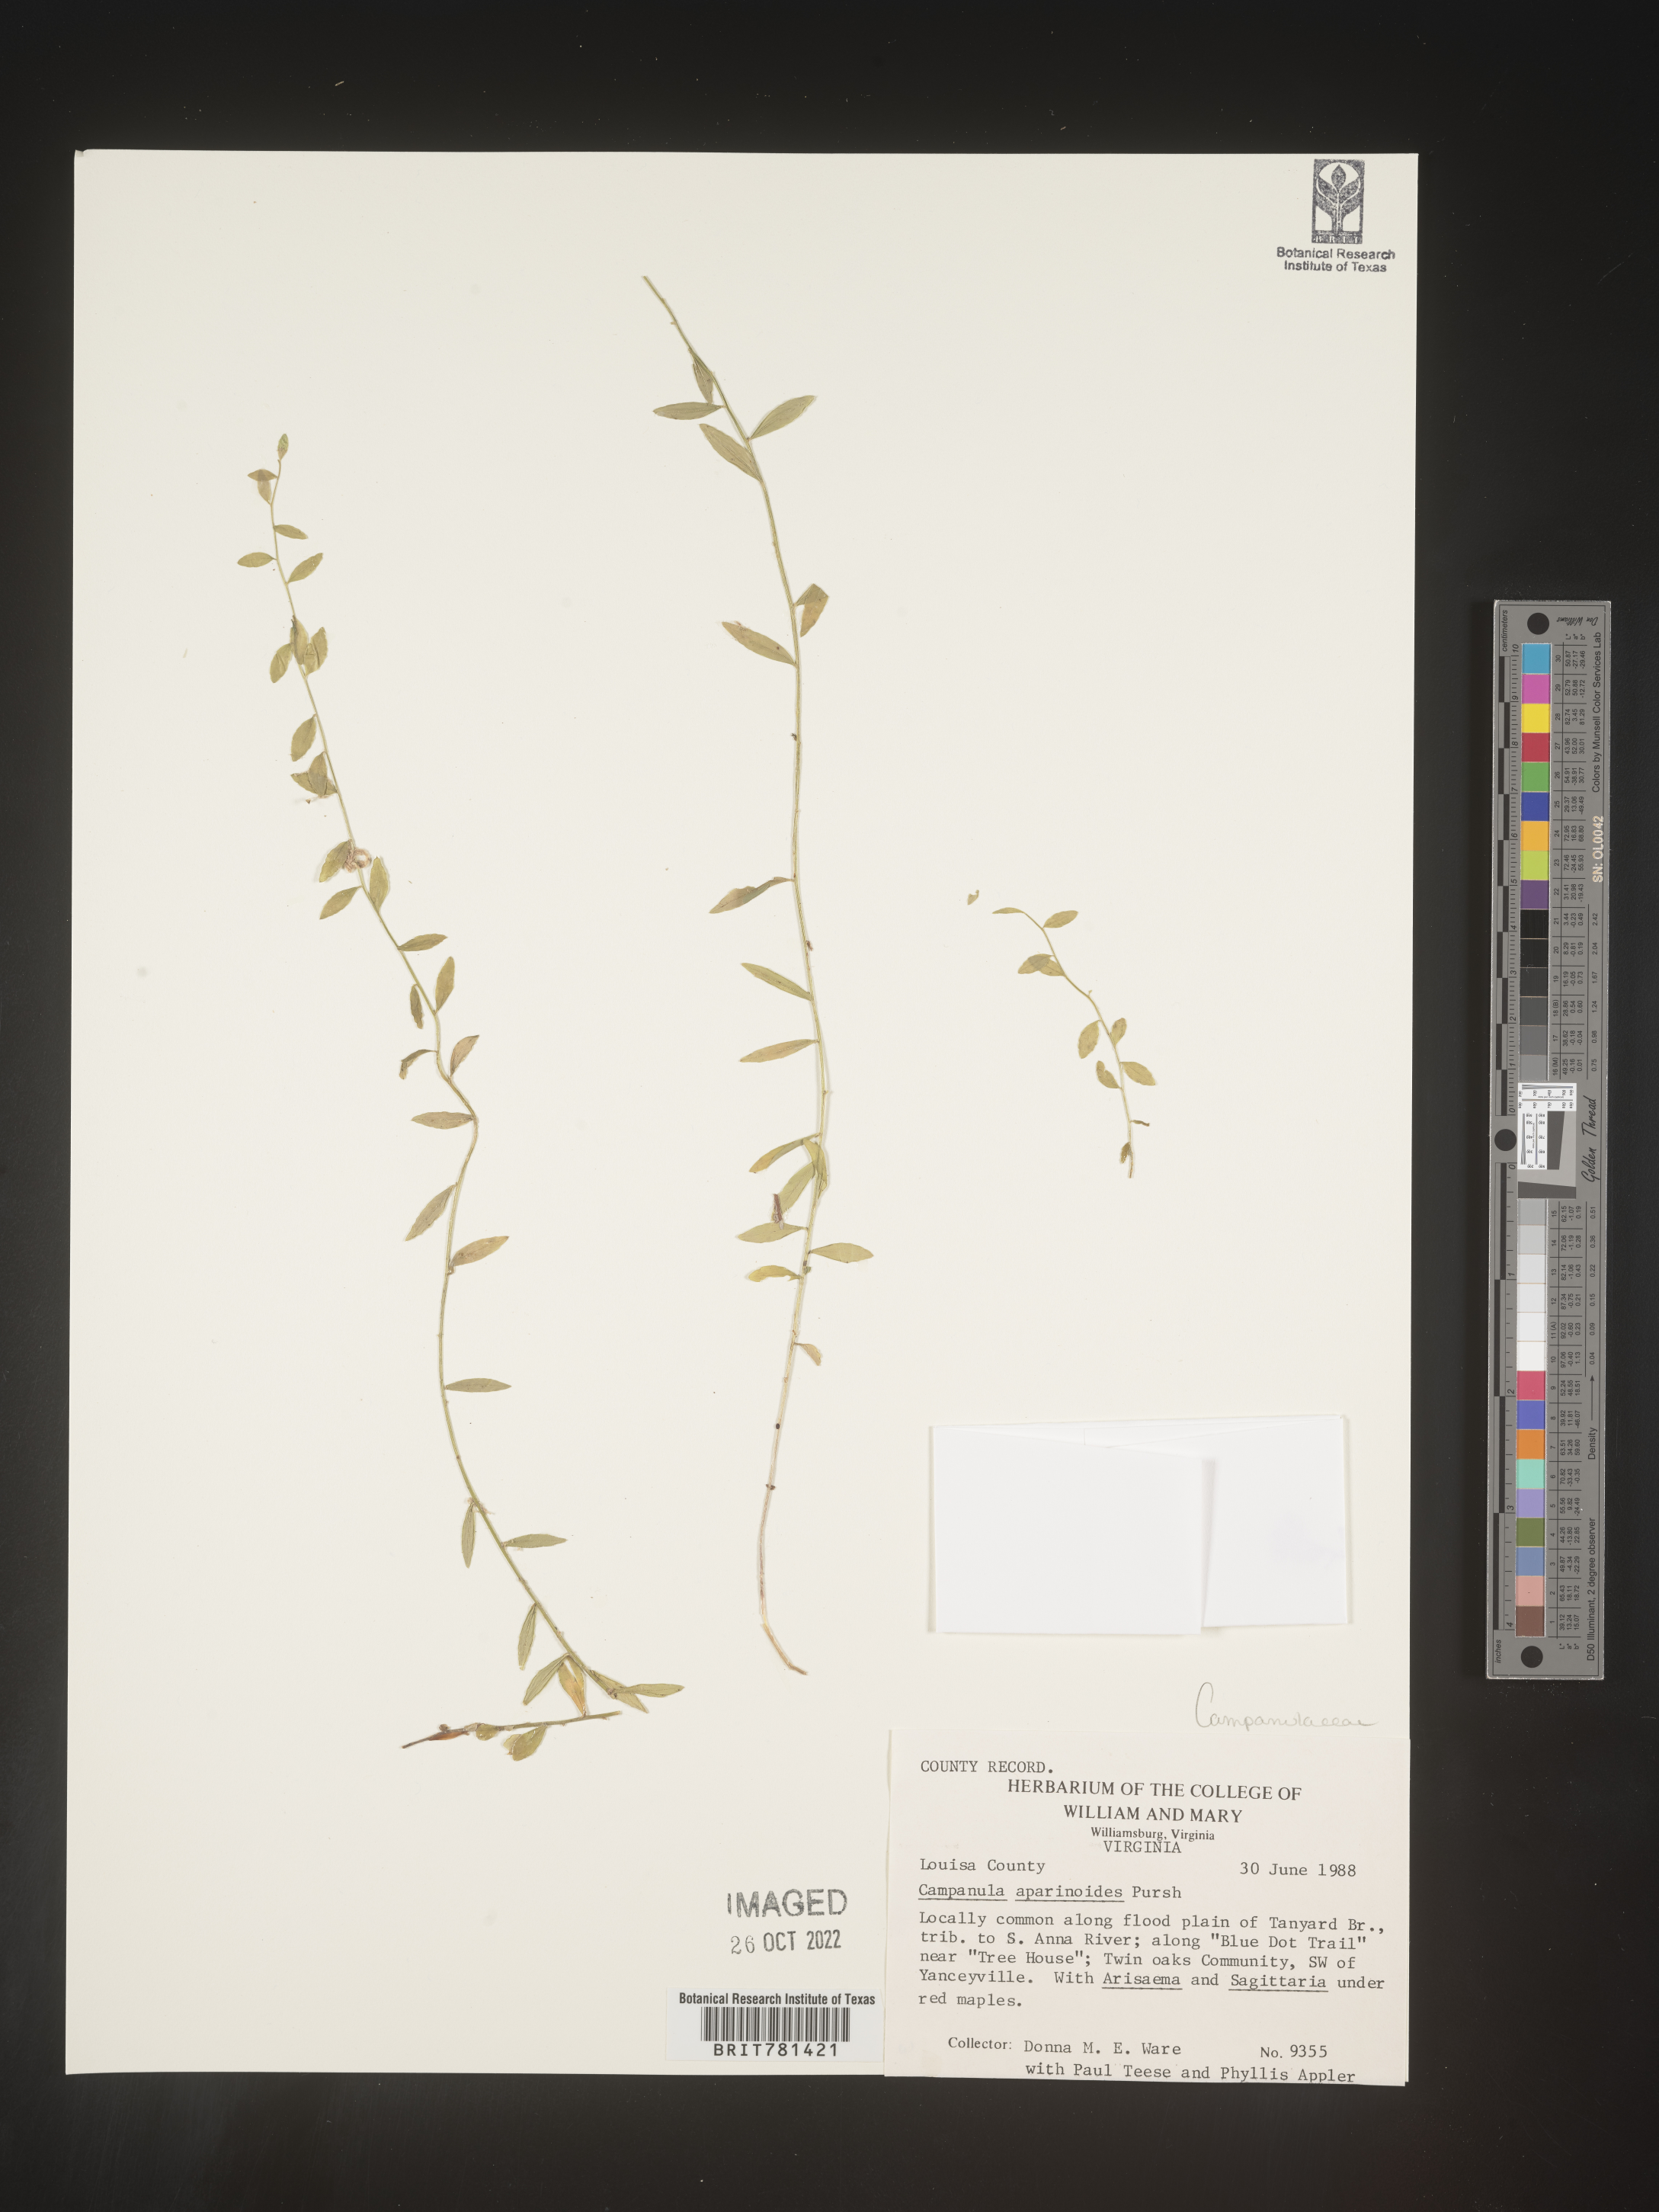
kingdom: Plantae
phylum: Tracheophyta
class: Magnoliopsida
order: Asterales
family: Campanulaceae
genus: Palustricodon
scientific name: Palustricodon aparinoides
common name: Bedstraw bellflower
